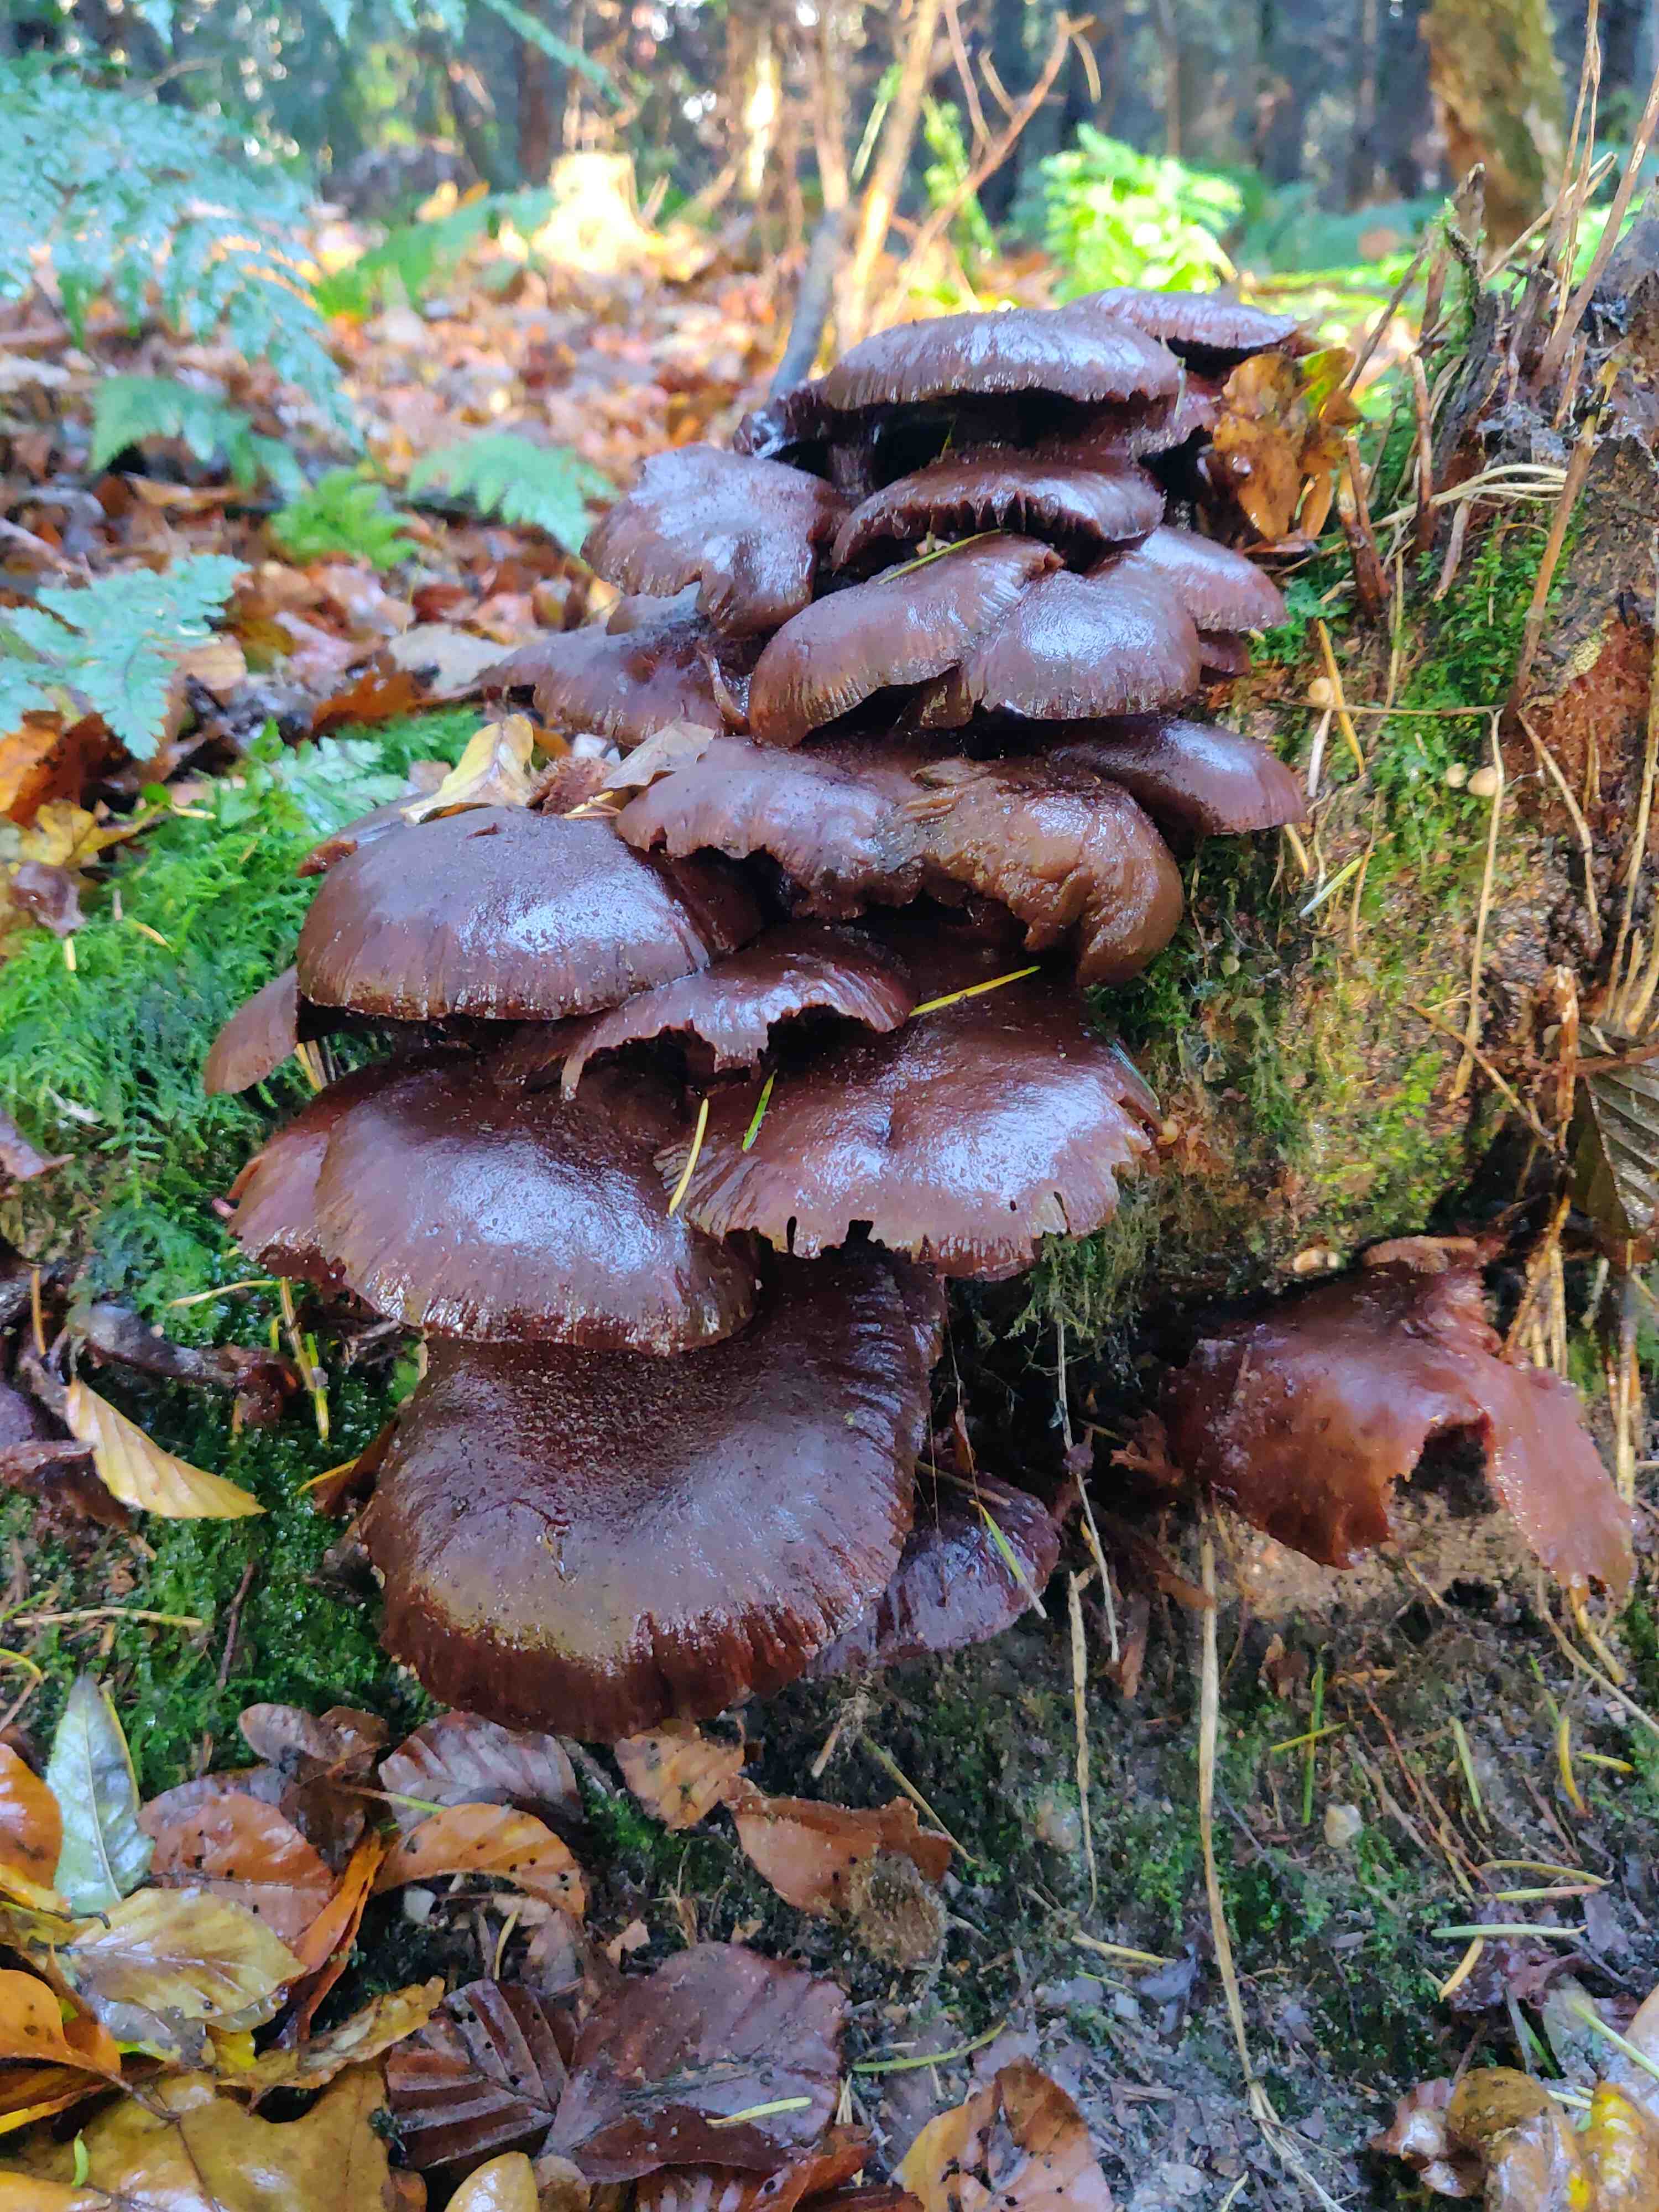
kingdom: Fungi
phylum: Basidiomycota
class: Agaricomycetes
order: Agaricales
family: Physalacriaceae
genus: Armillaria
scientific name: Armillaria
